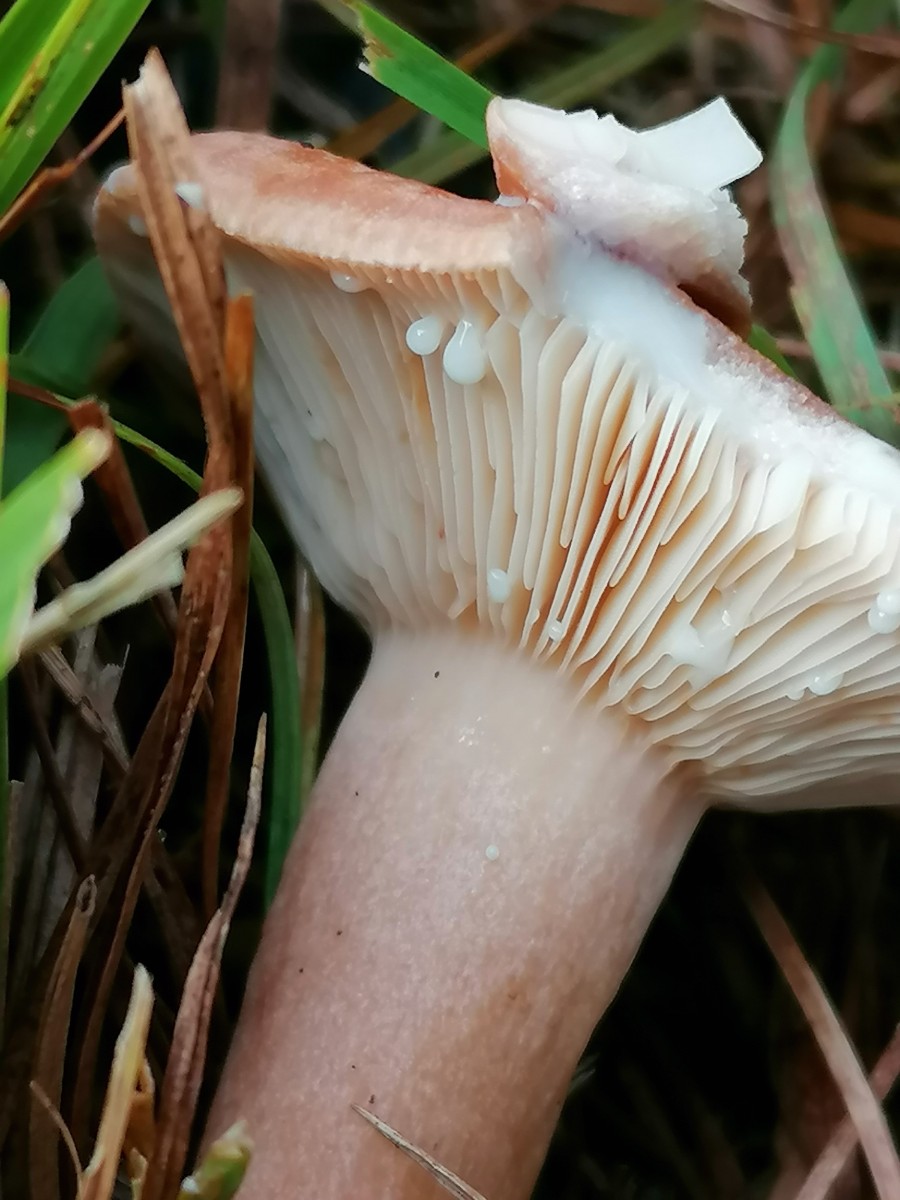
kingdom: Fungi
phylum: Basidiomycota
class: Agaricomycetes
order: Russulales
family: Russulaceae
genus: Lactarius
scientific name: Lactarius quietus
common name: ege-mælkehat
